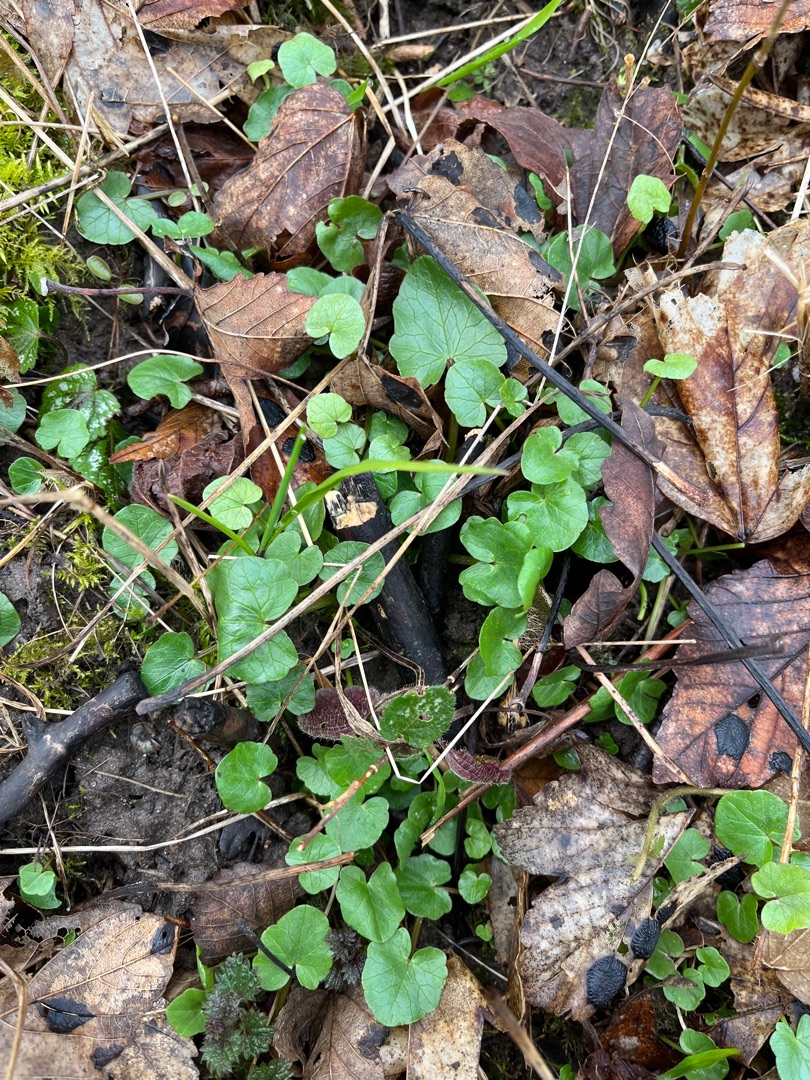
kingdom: Plantae
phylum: Tracheophyta
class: Magnoliopsida
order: Ranunculales
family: Ranunculaceae
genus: Ficaria
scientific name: Ficaria verna
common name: Vorterod
